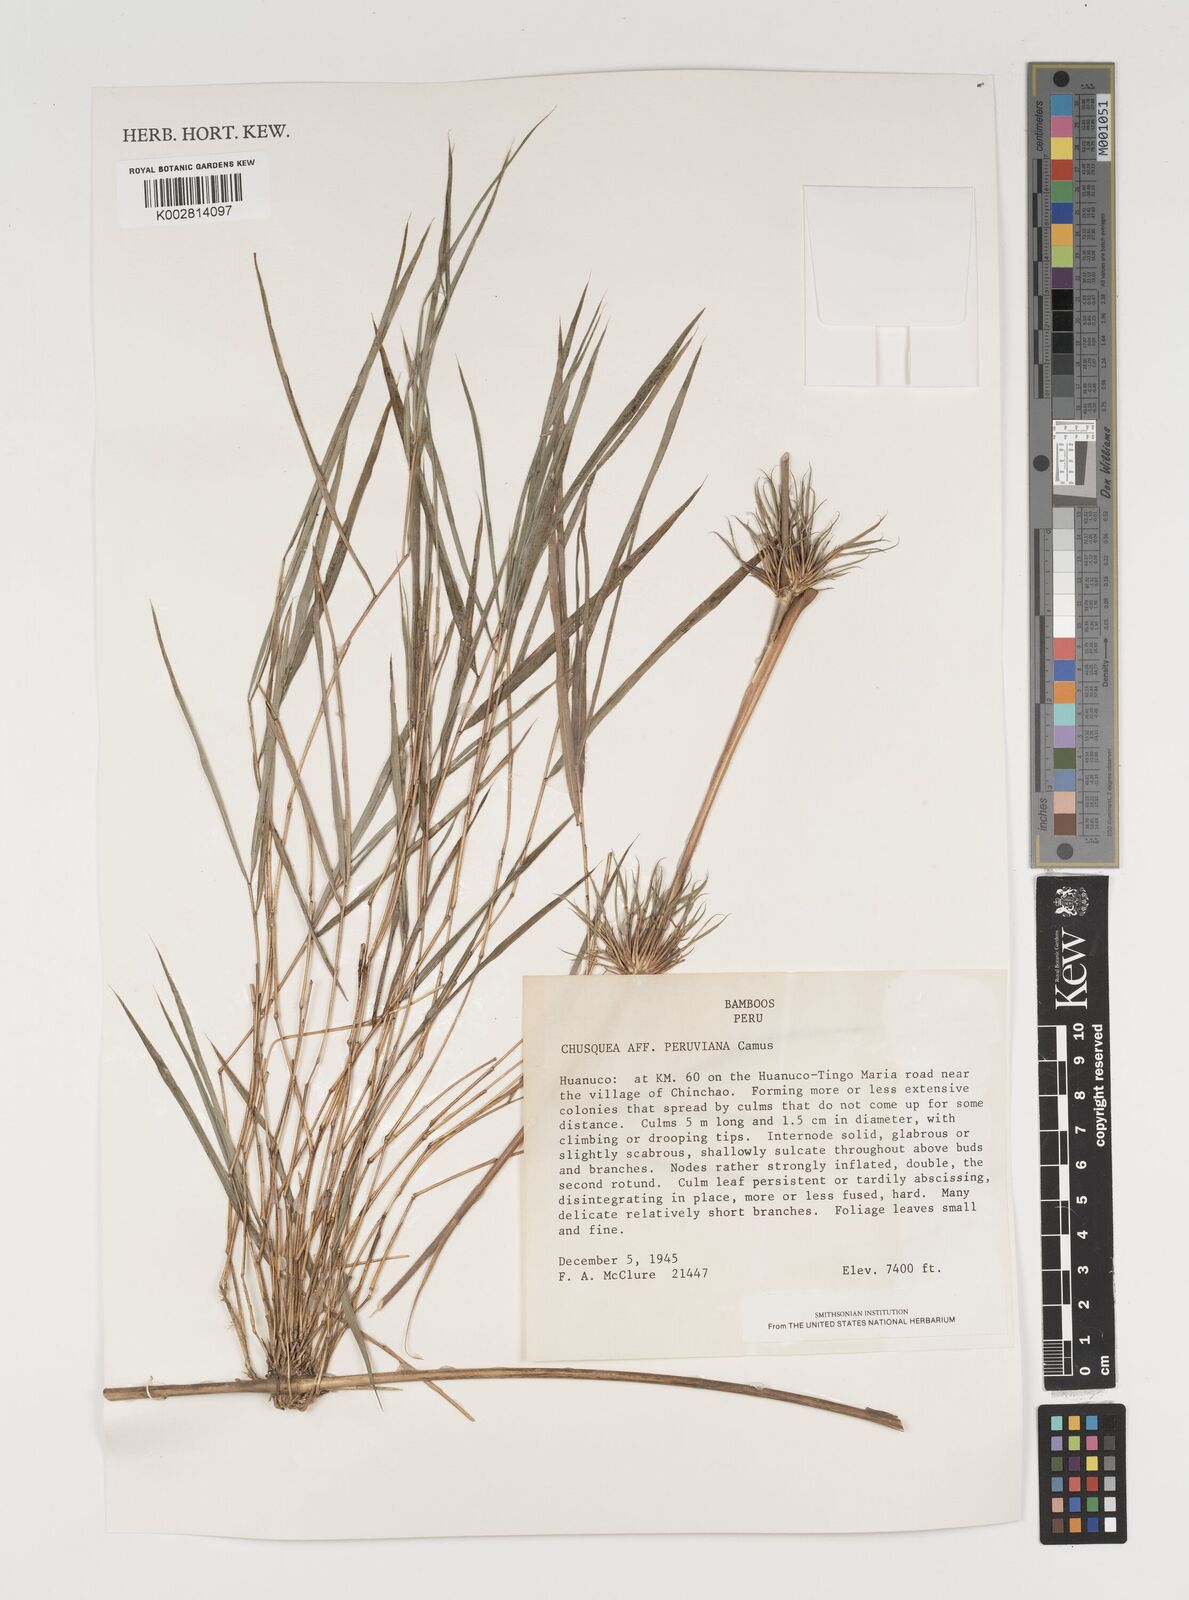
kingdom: Plantae
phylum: Tracheophyta
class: Liliopsida
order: Poales
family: Poaceae
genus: Chusquea
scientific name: Chusquea
